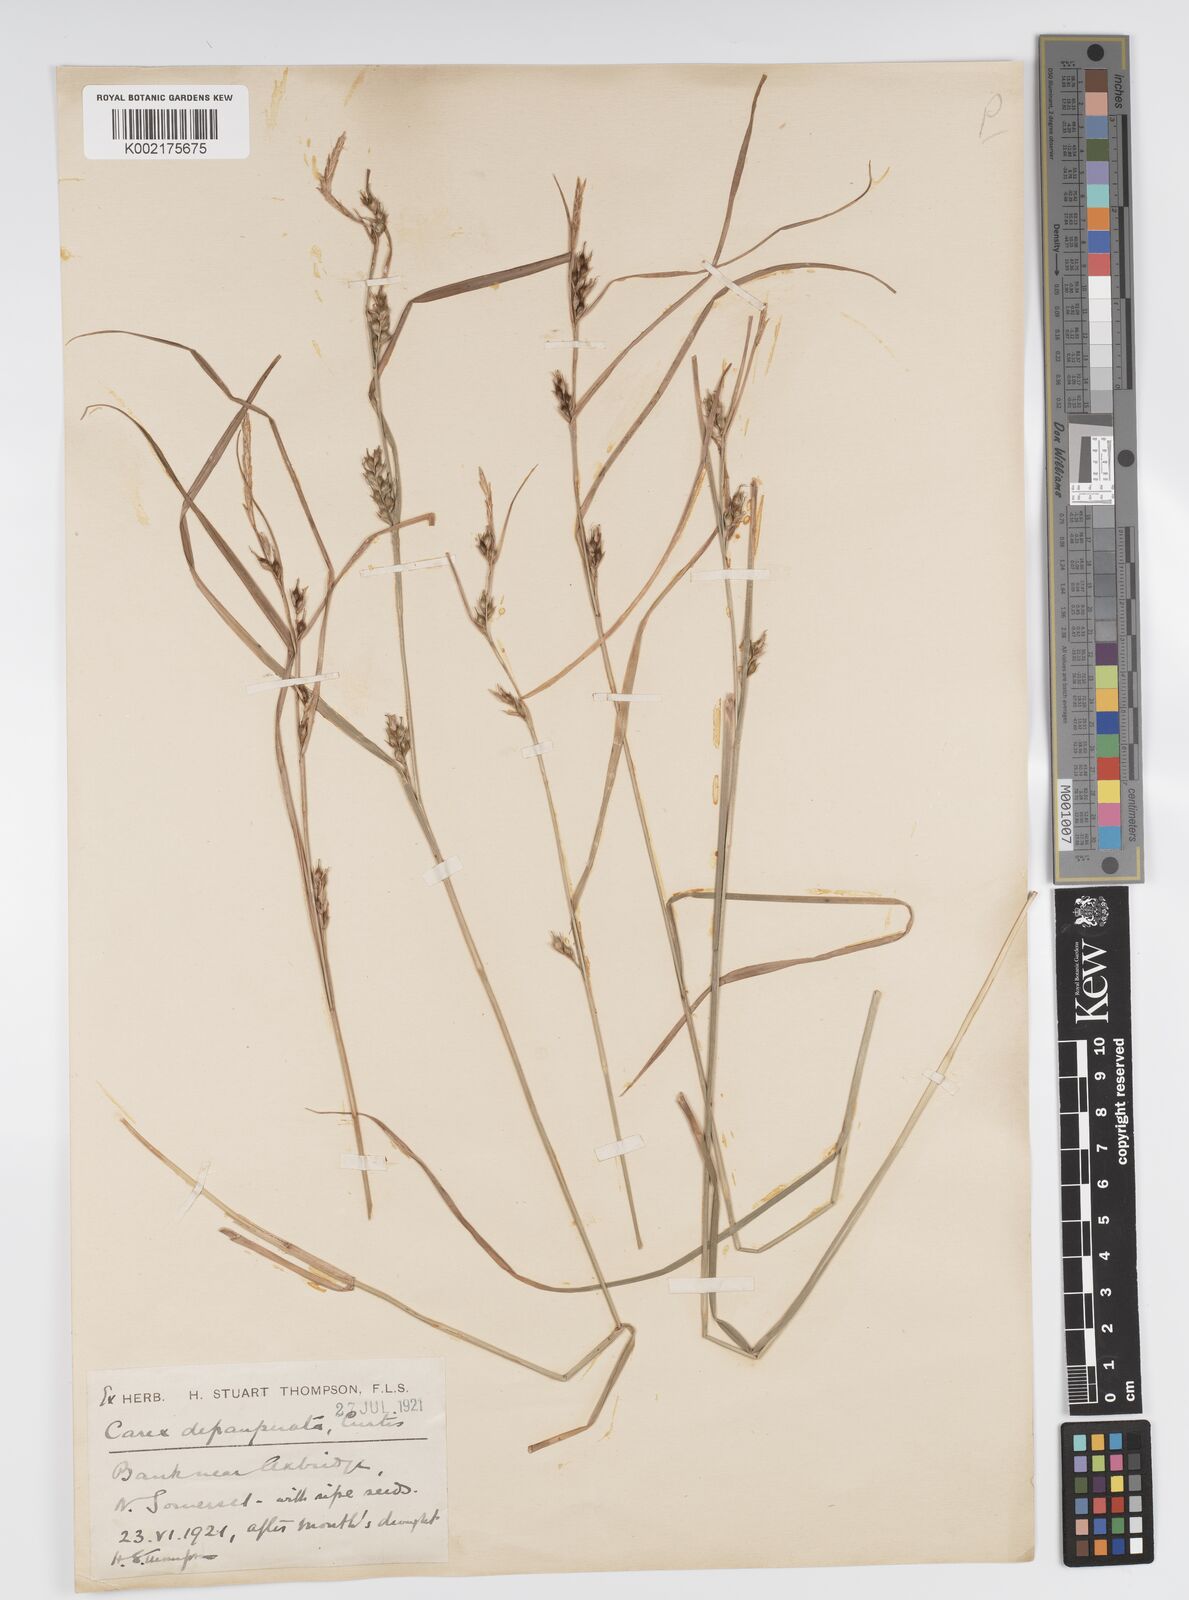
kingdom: Plantae
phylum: Tracheophyta
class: Liliopsida
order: Poales
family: Cyperaceae
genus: Carex
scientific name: Carex depauperata
